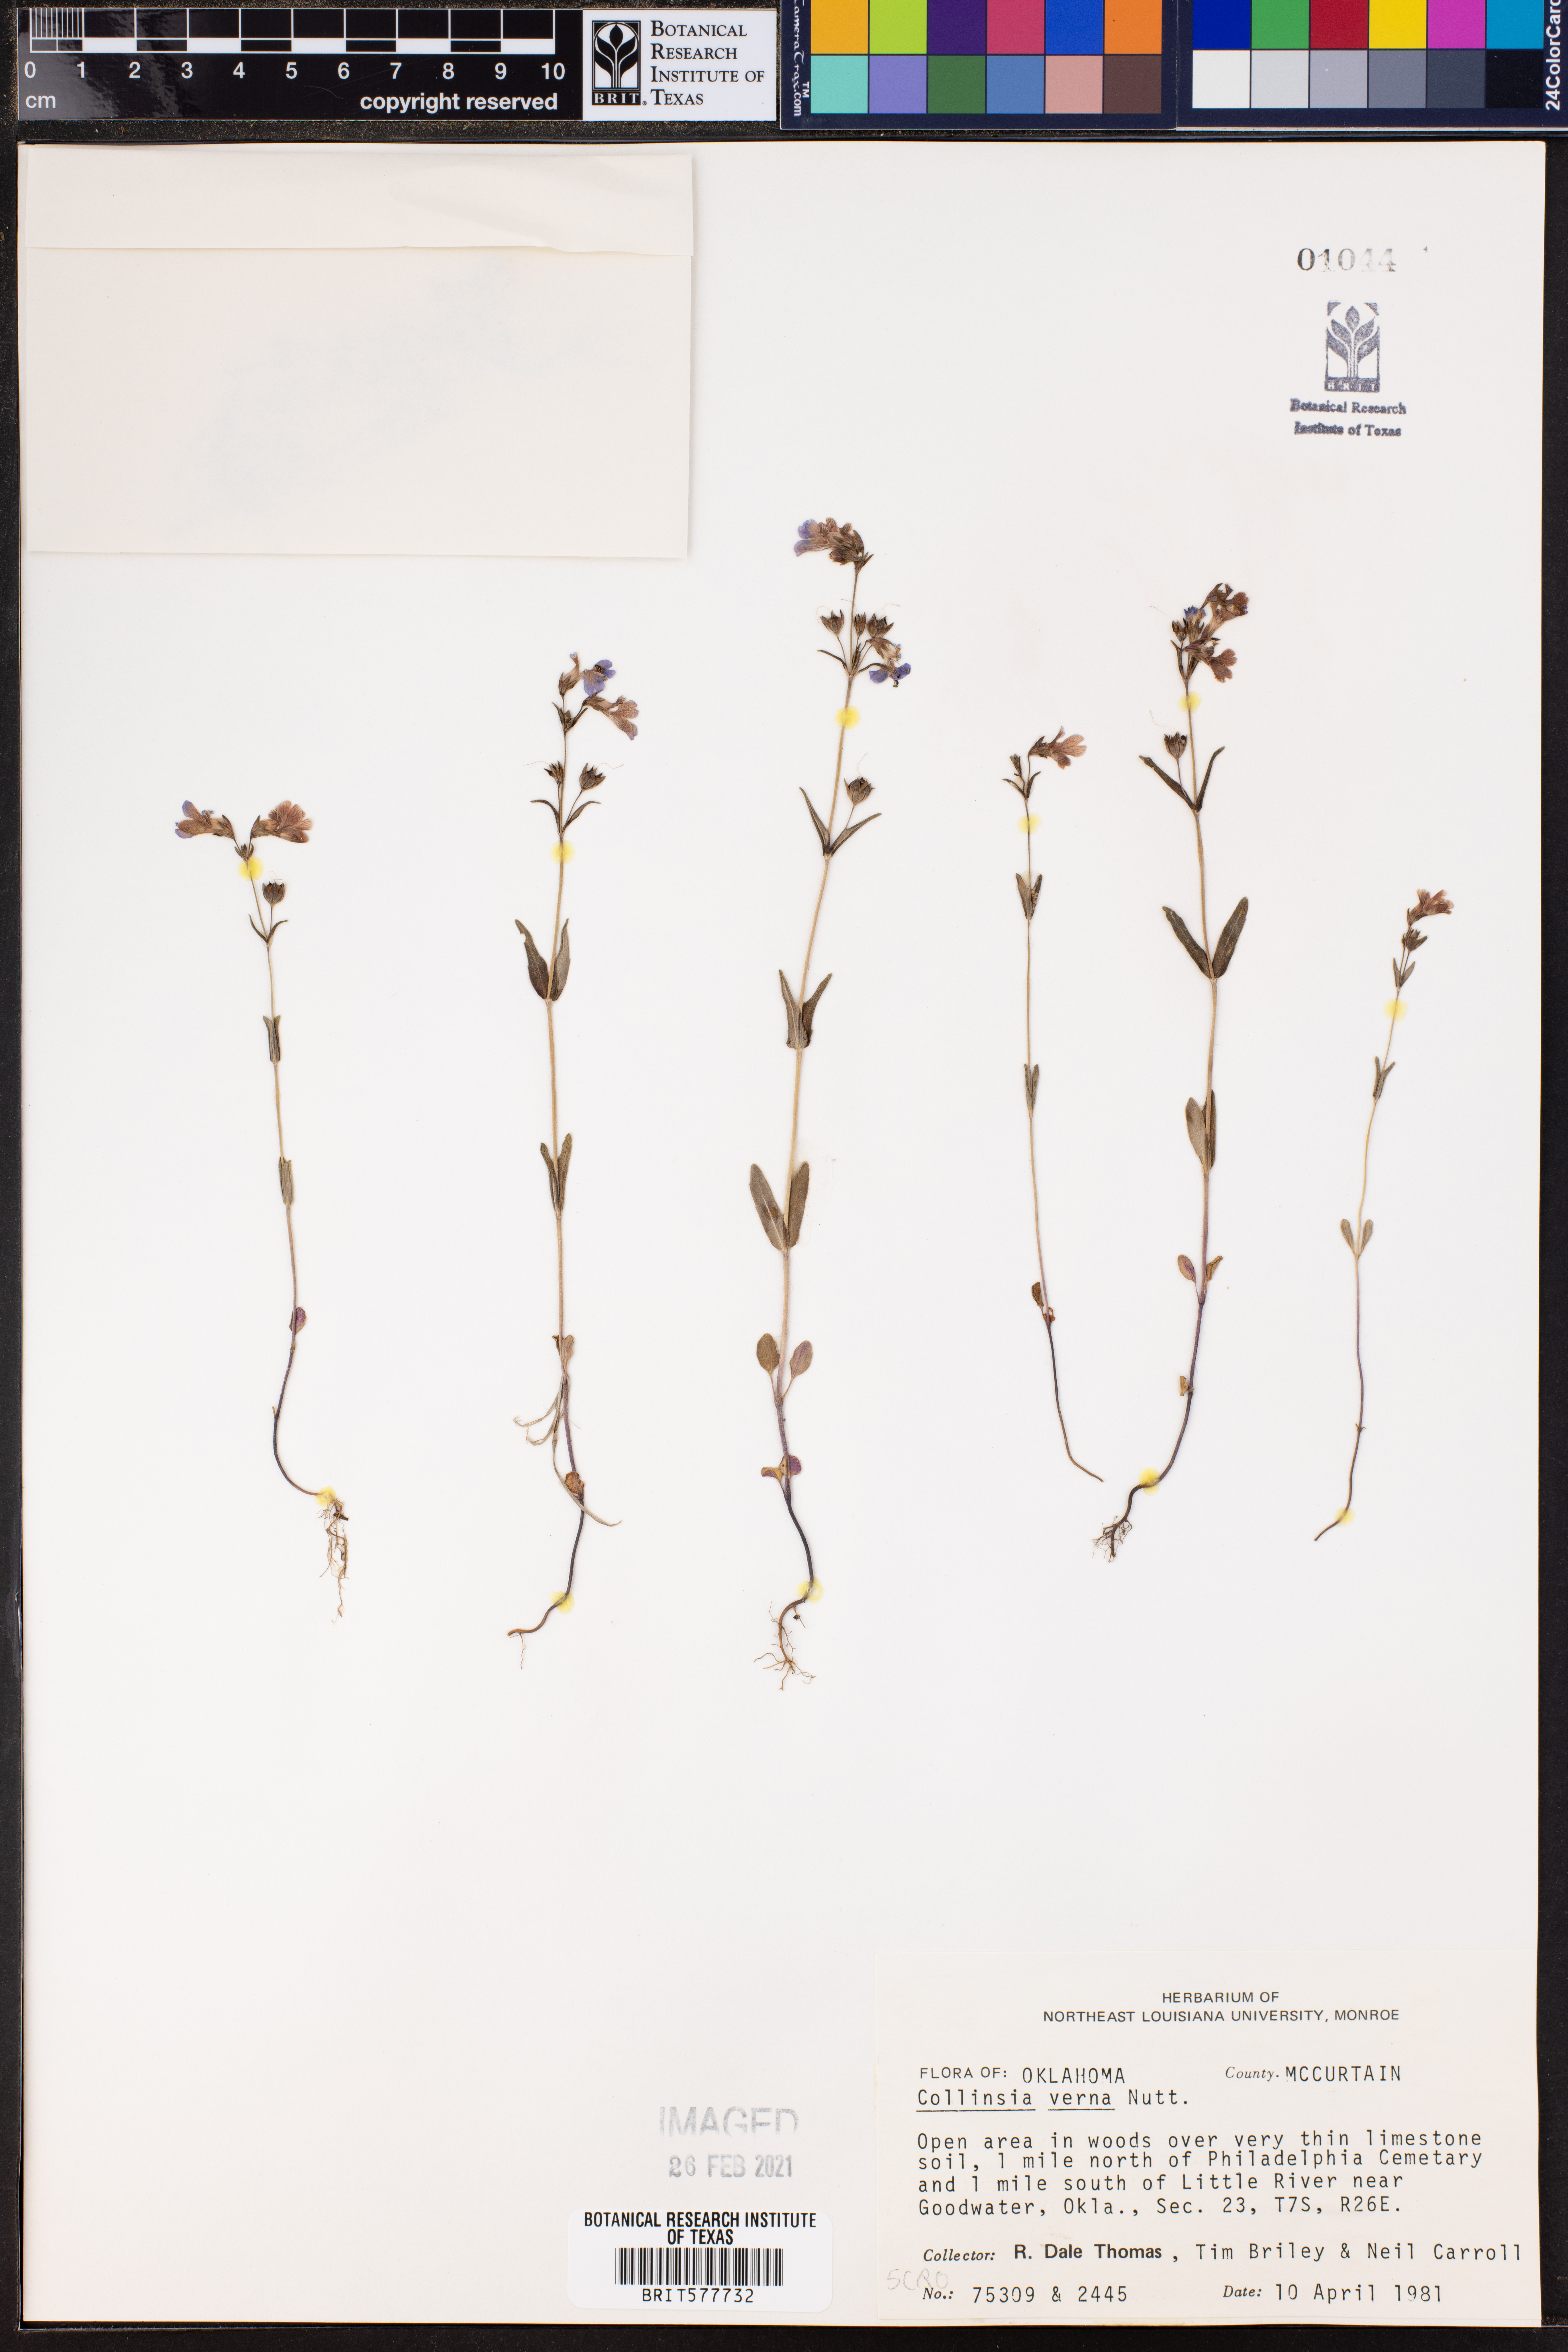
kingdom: Plantae
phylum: Tracheophyta
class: Magnoliopsida
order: Lamiales
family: Plantaginaceae
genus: Collinsia
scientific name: Collinsia verna
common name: Broad-leaved collinsia
